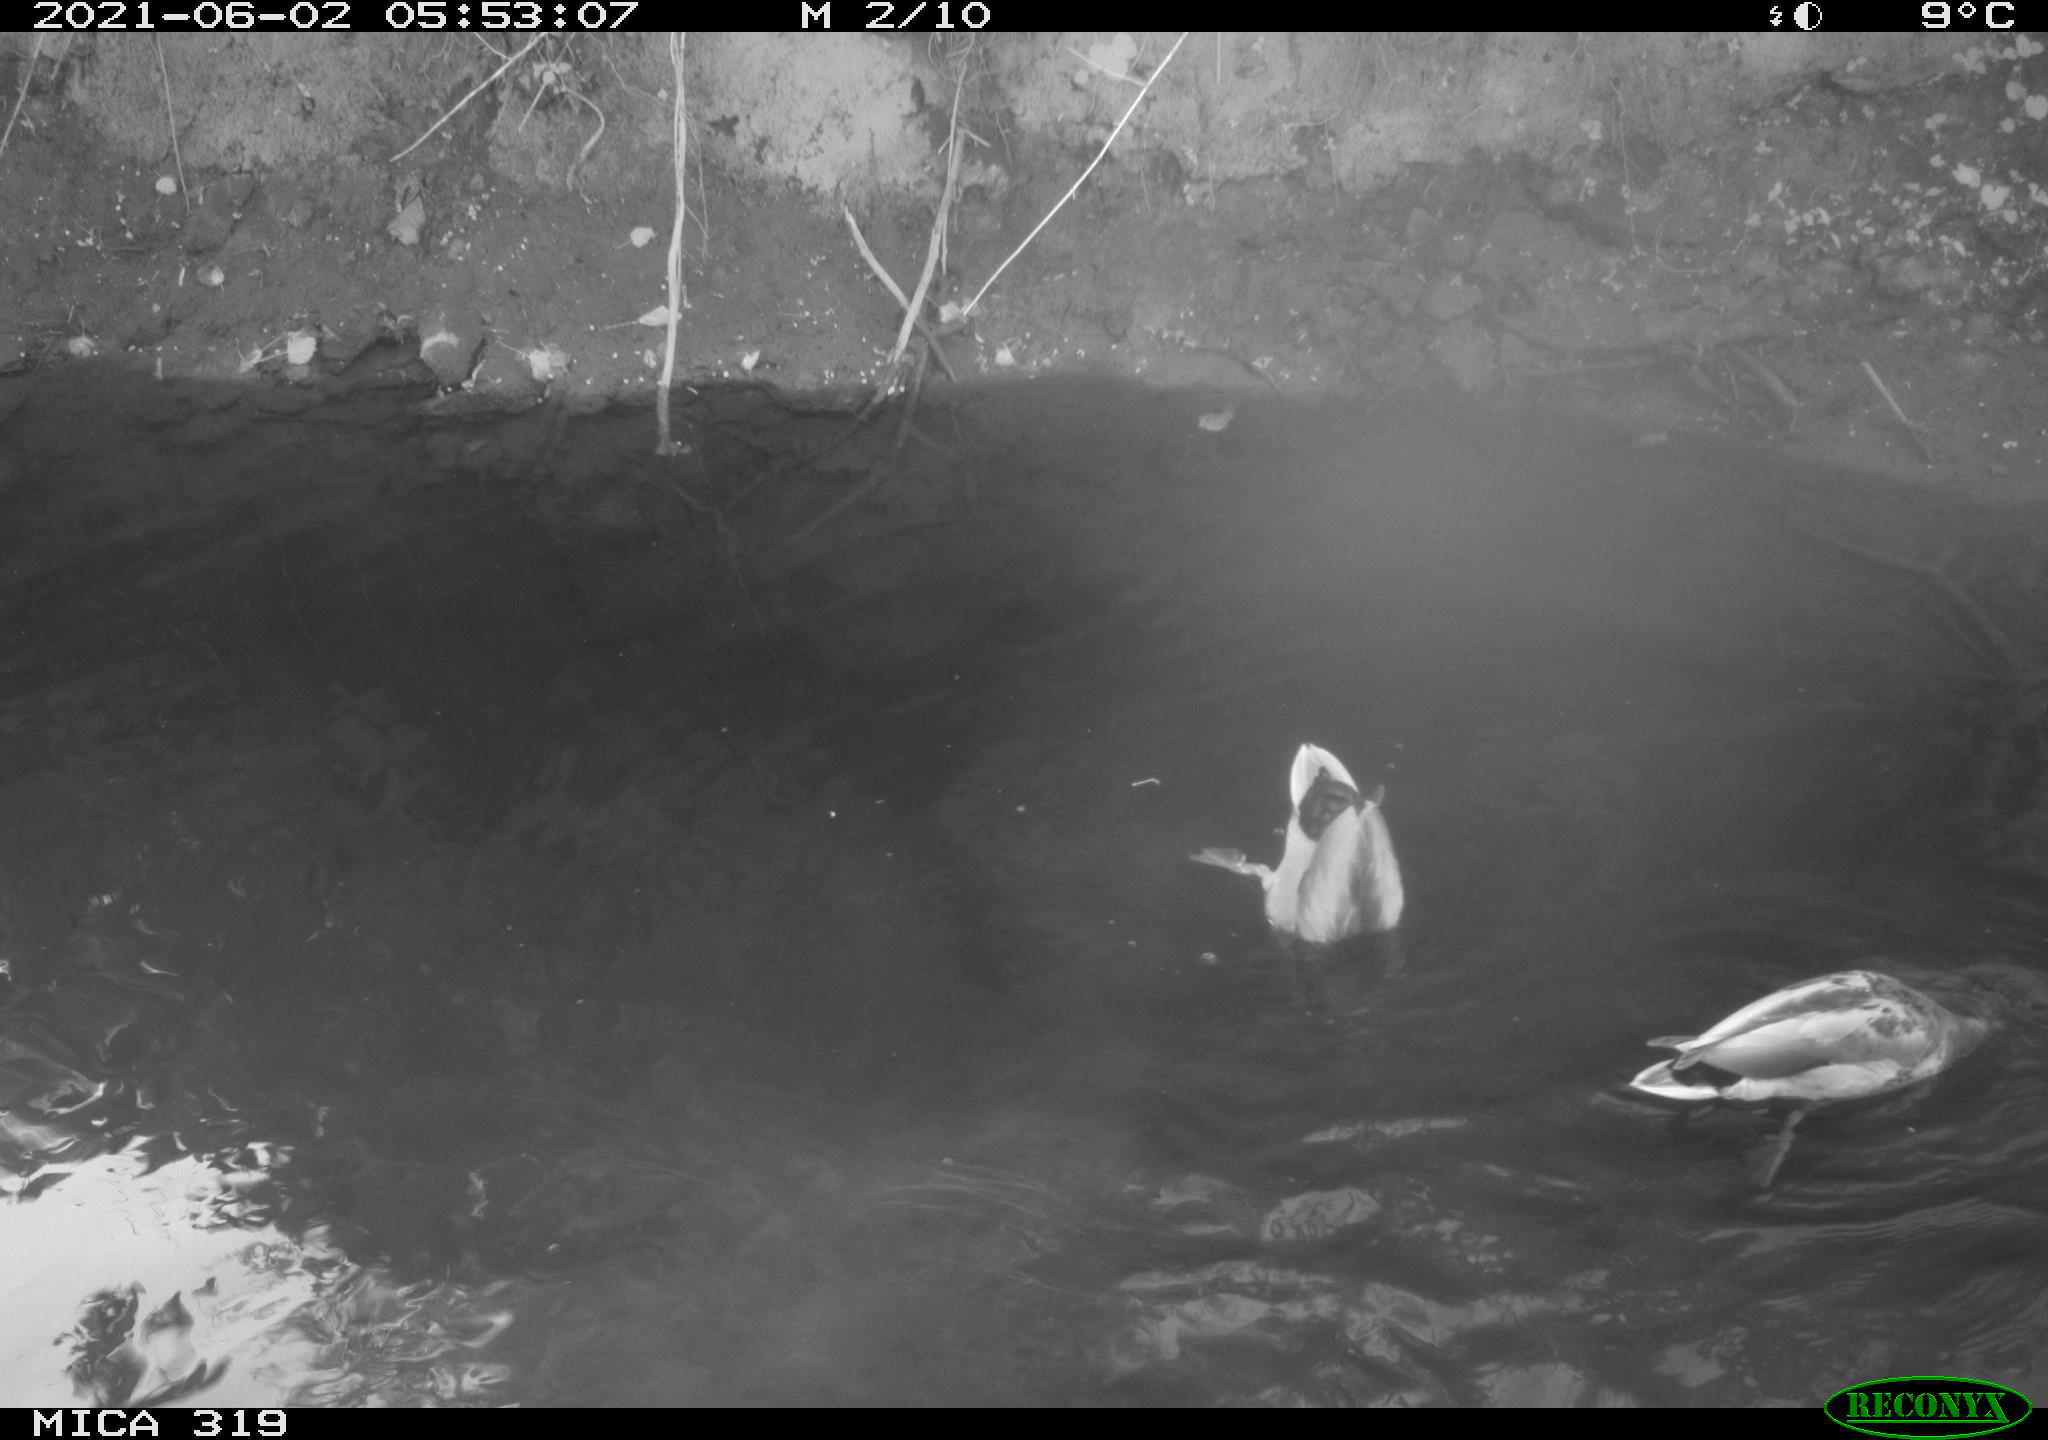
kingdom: Animalia
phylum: Chordata
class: Aves
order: Anseriformes
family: Anatidae
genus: Anas
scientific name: Anas platyrhynchos
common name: Mallard
